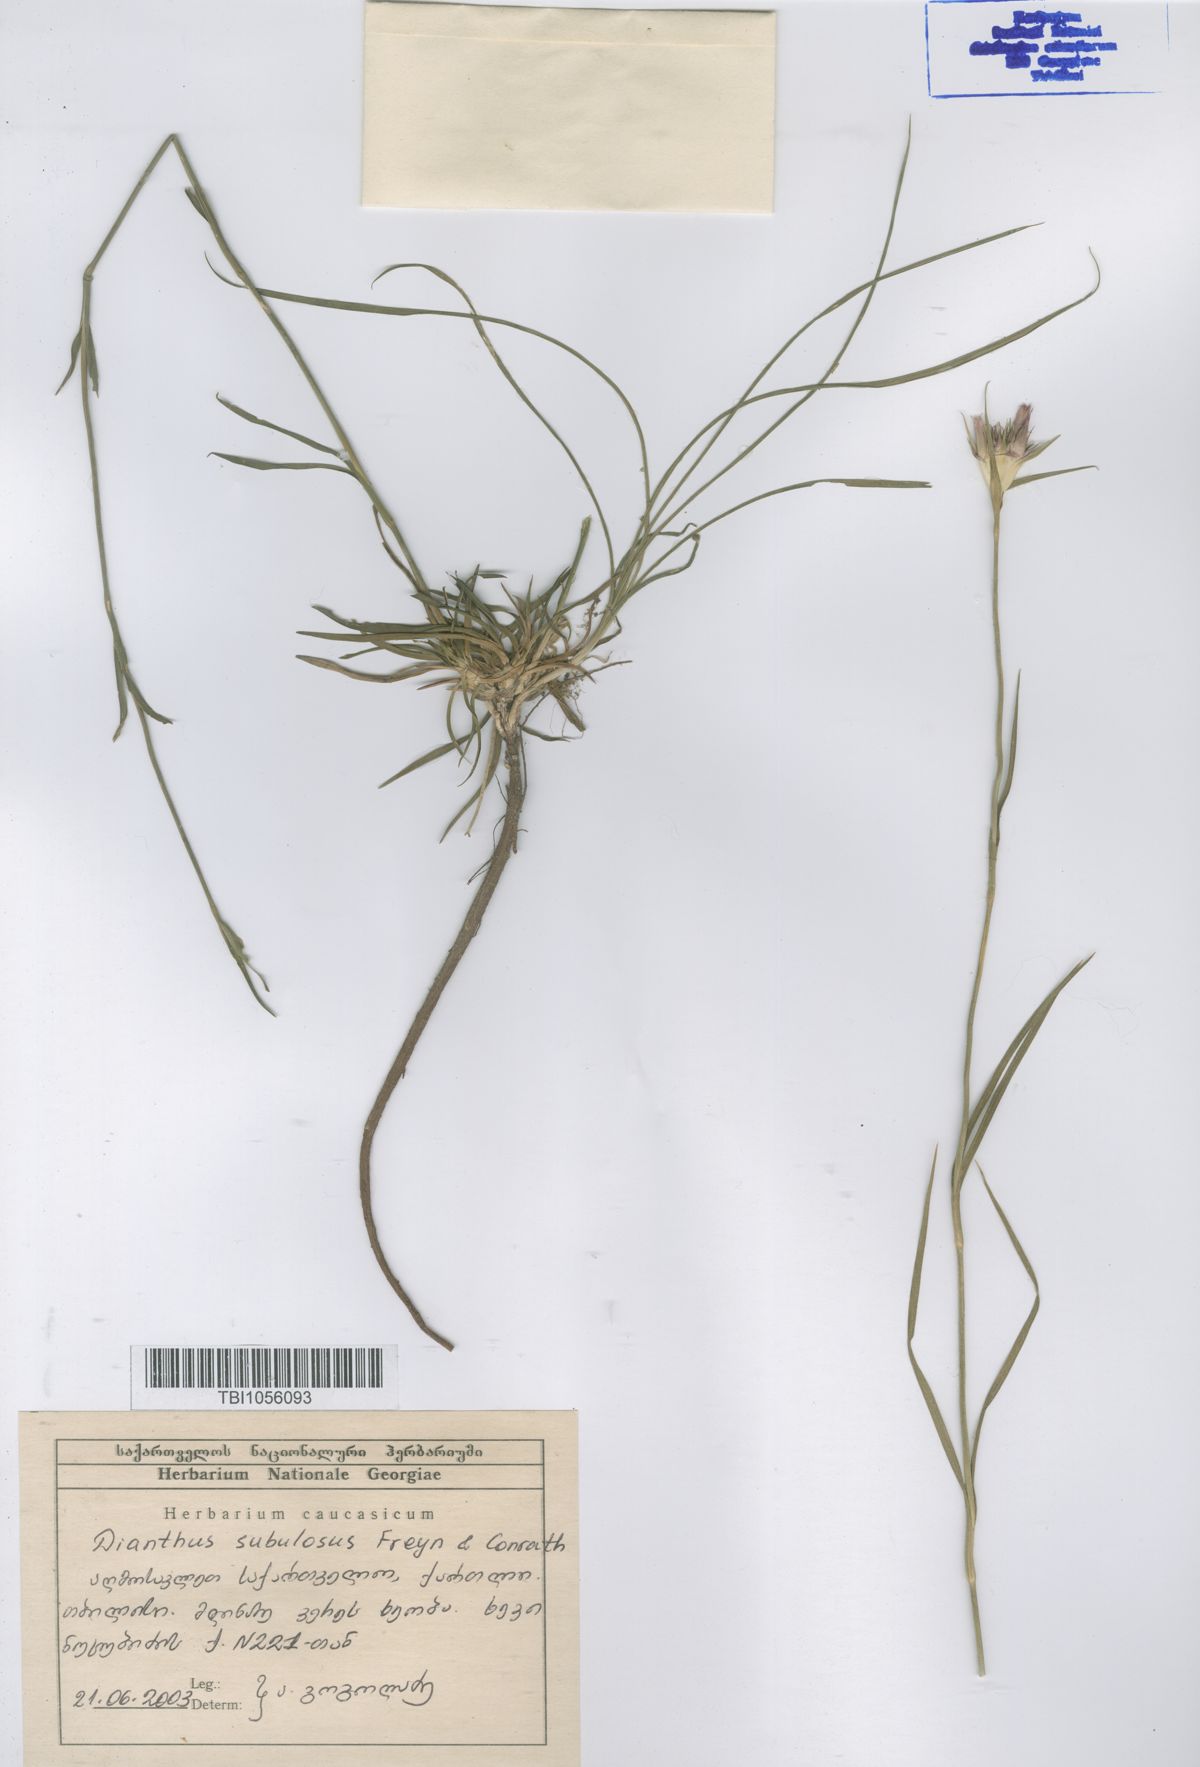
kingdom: Plantae
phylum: Tracheophyta
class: Magnoliopsida
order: Caryophyllales
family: Caryophyllaceae
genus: Dianthus
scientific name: Dianthus subulosus
